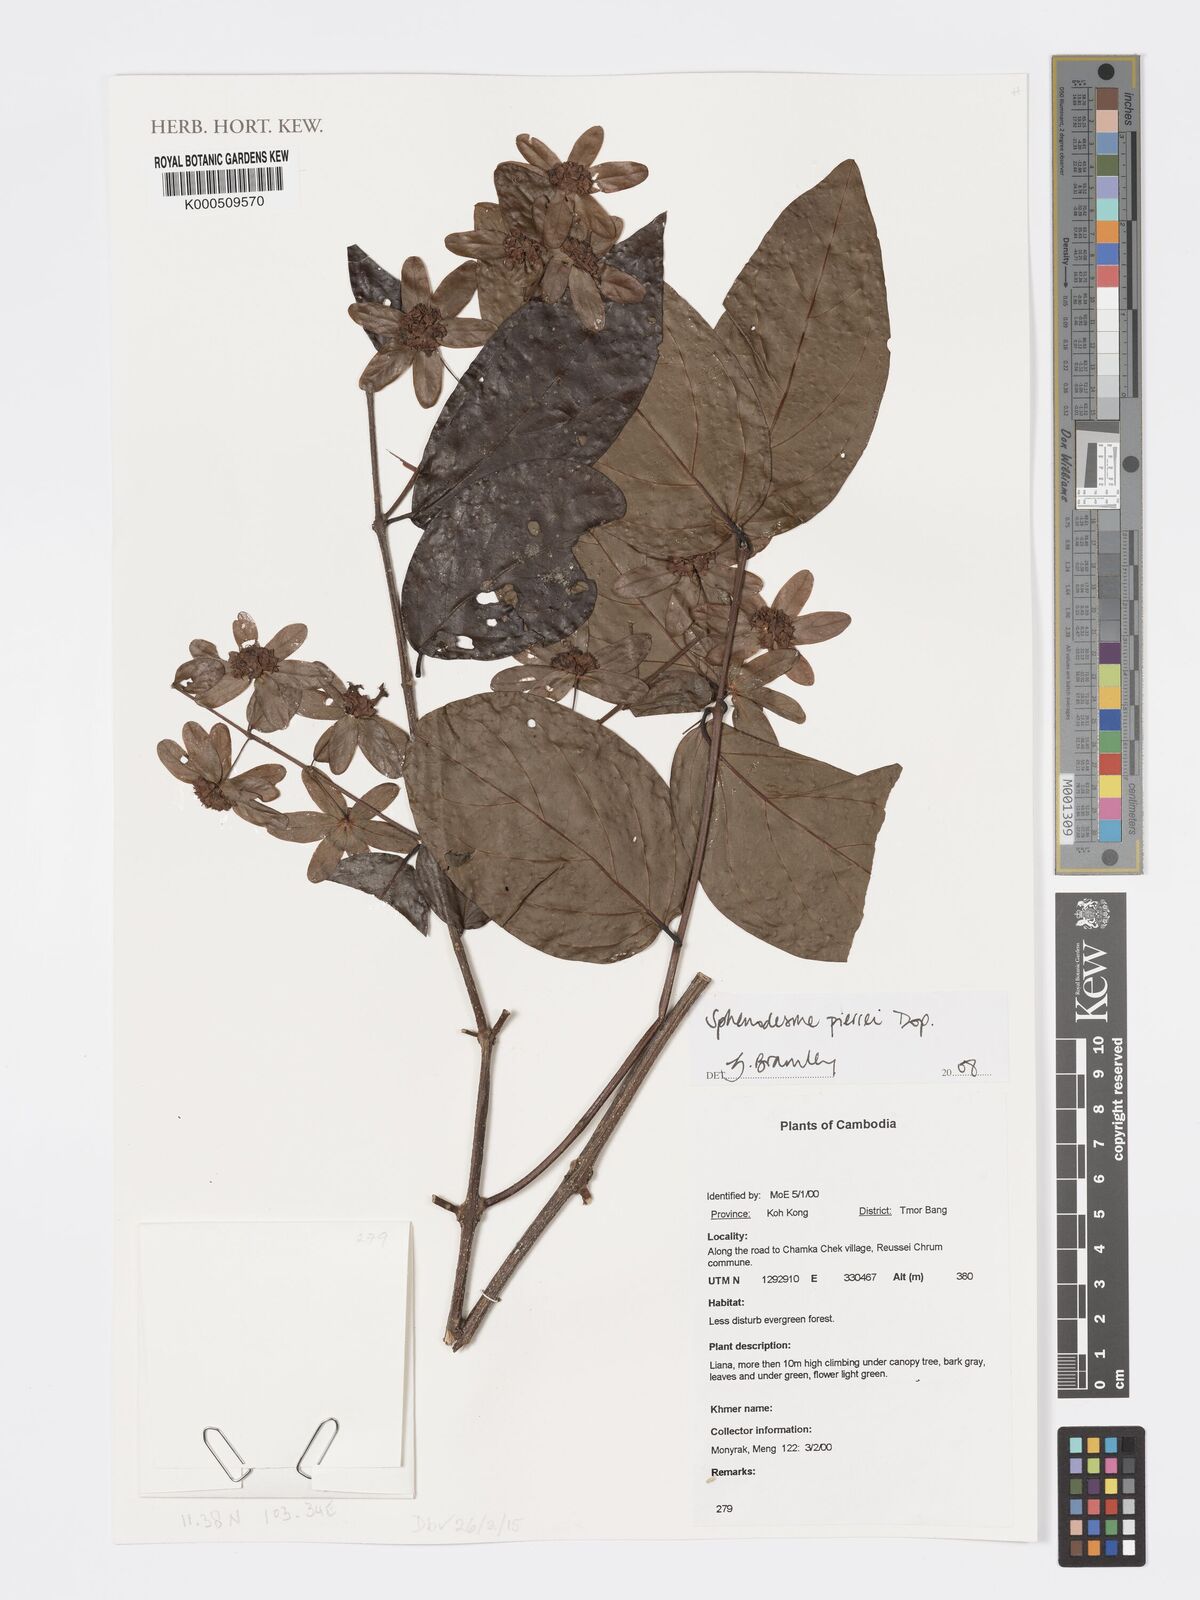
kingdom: Plantae
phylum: Tracheophyta
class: Magnoliopsida
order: Lamiales
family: Lamiaceae
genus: Sphenodesme
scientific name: Sphenodesme pierrei
